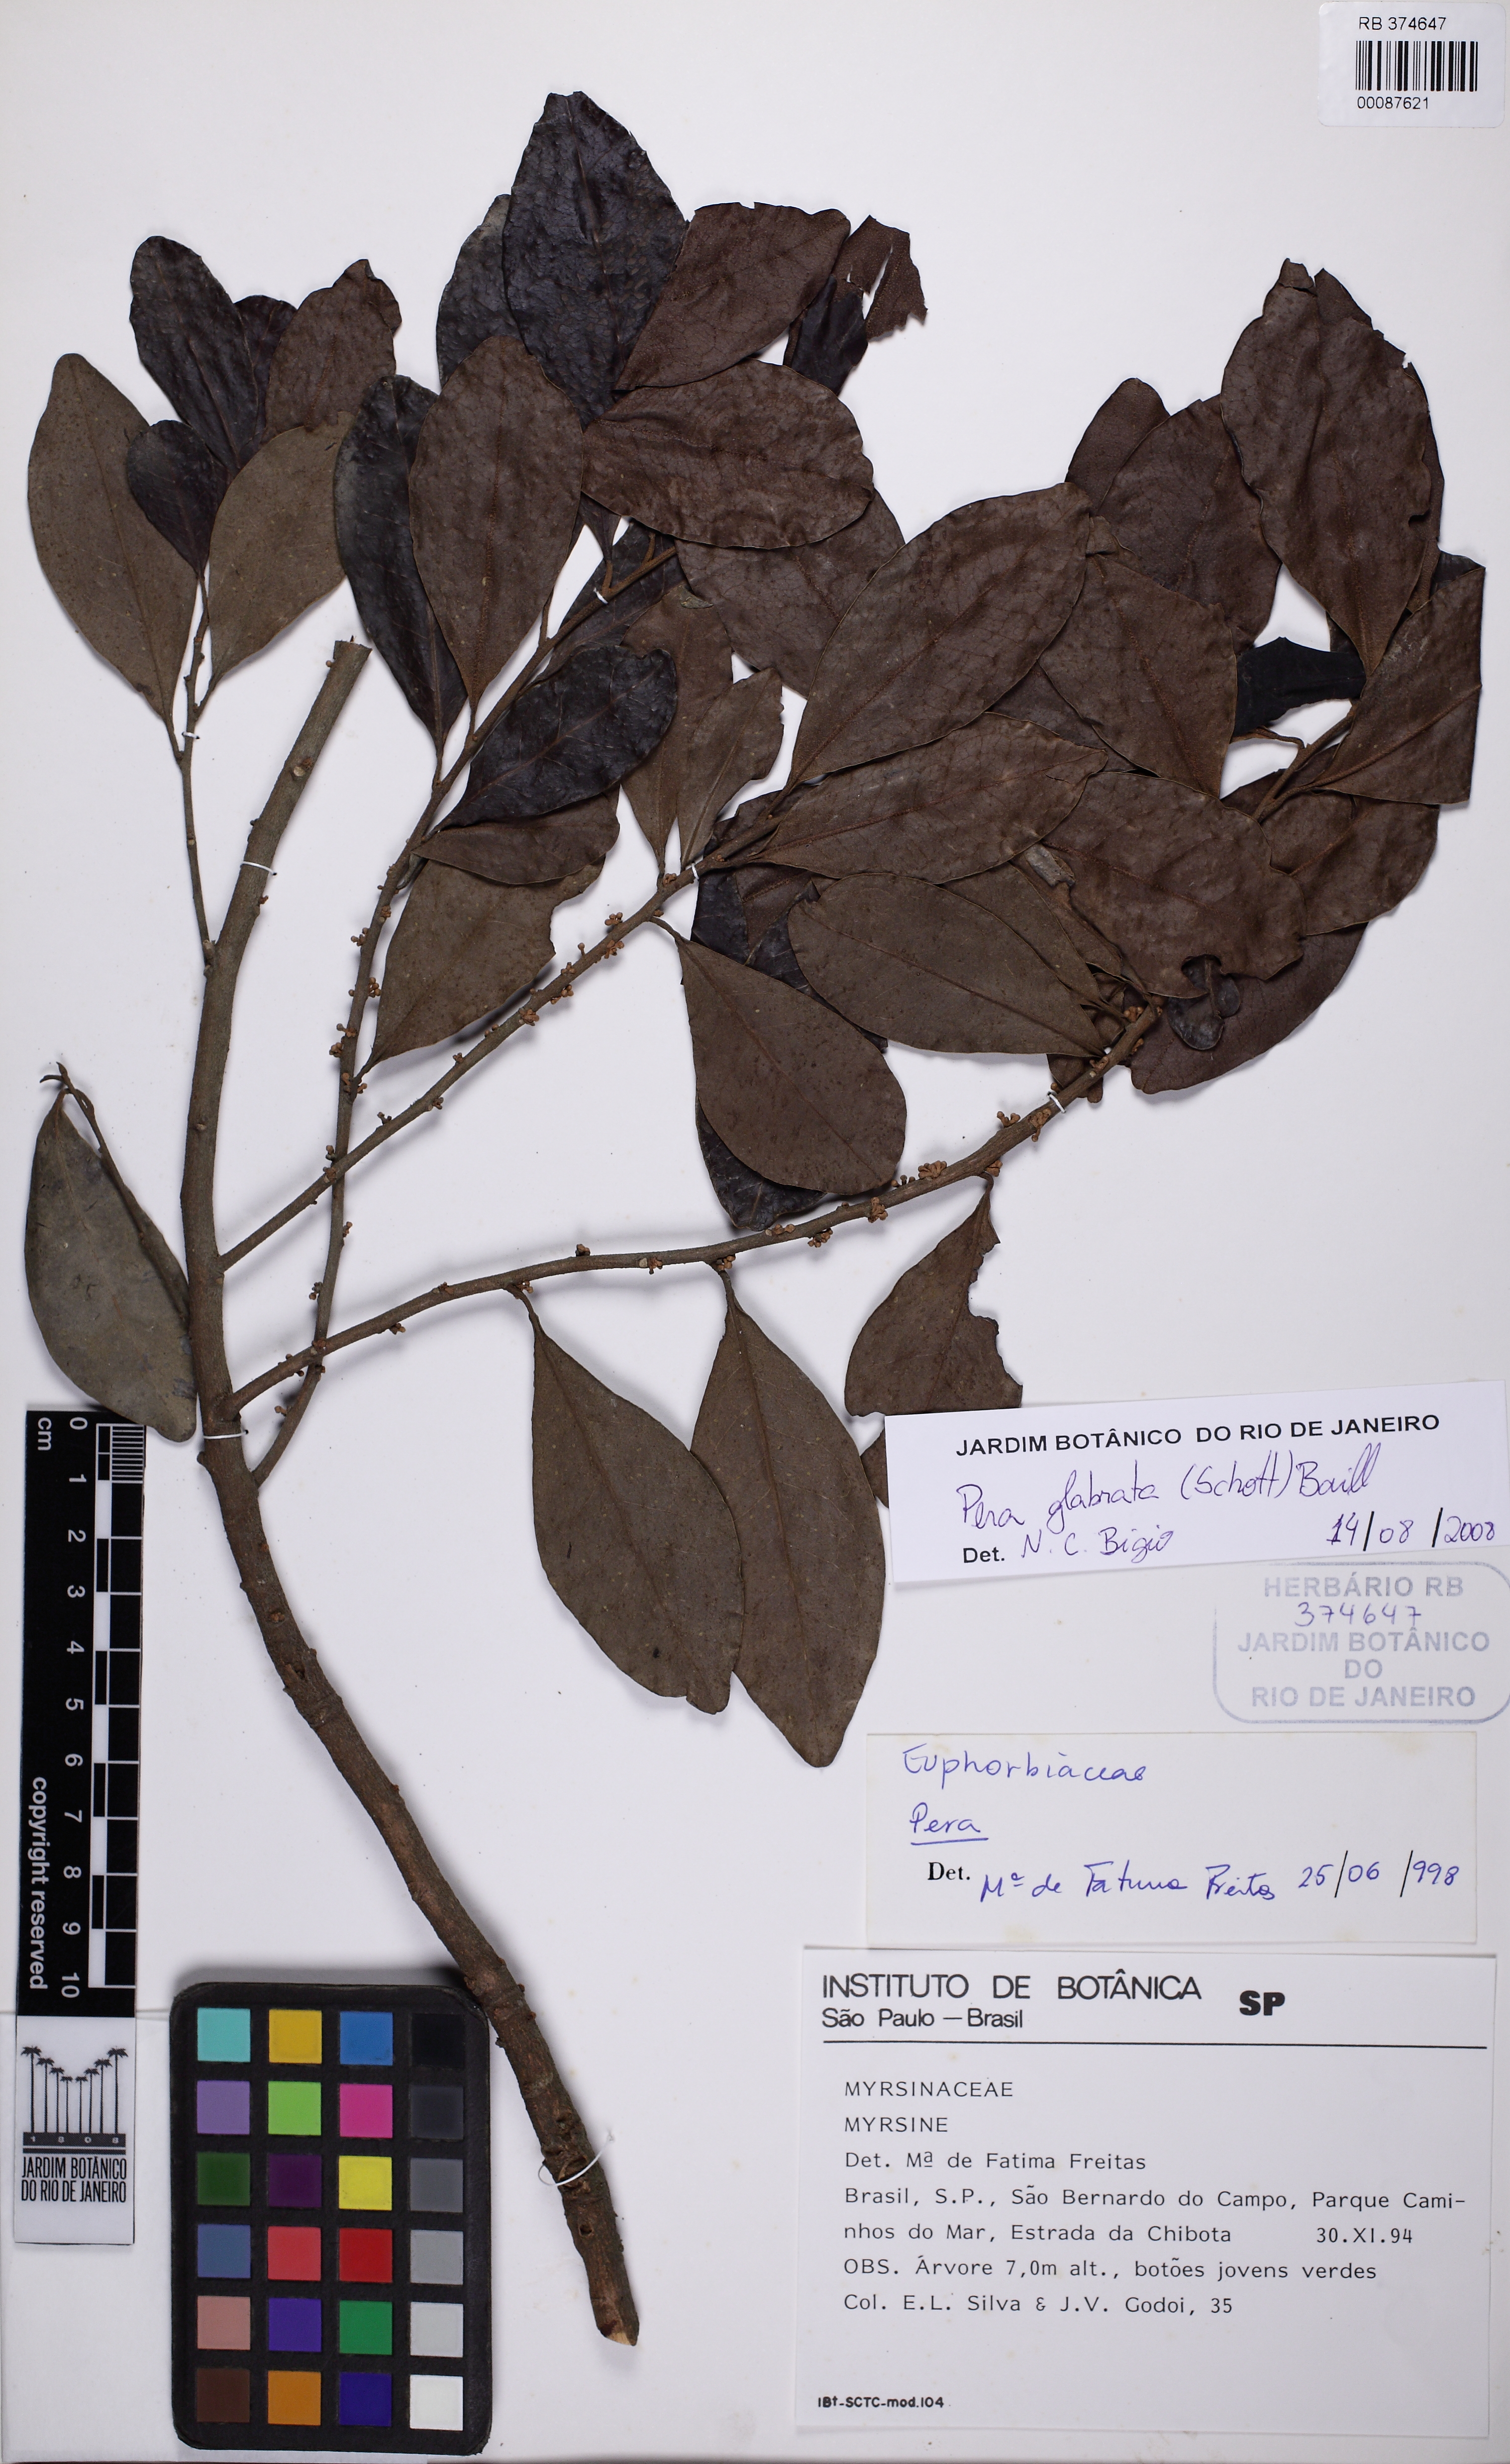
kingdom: Plantae
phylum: Tracheophyta
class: Magnoliopsida
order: Malpighiales
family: Peraceae
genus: Pera
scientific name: Pera glabrata
